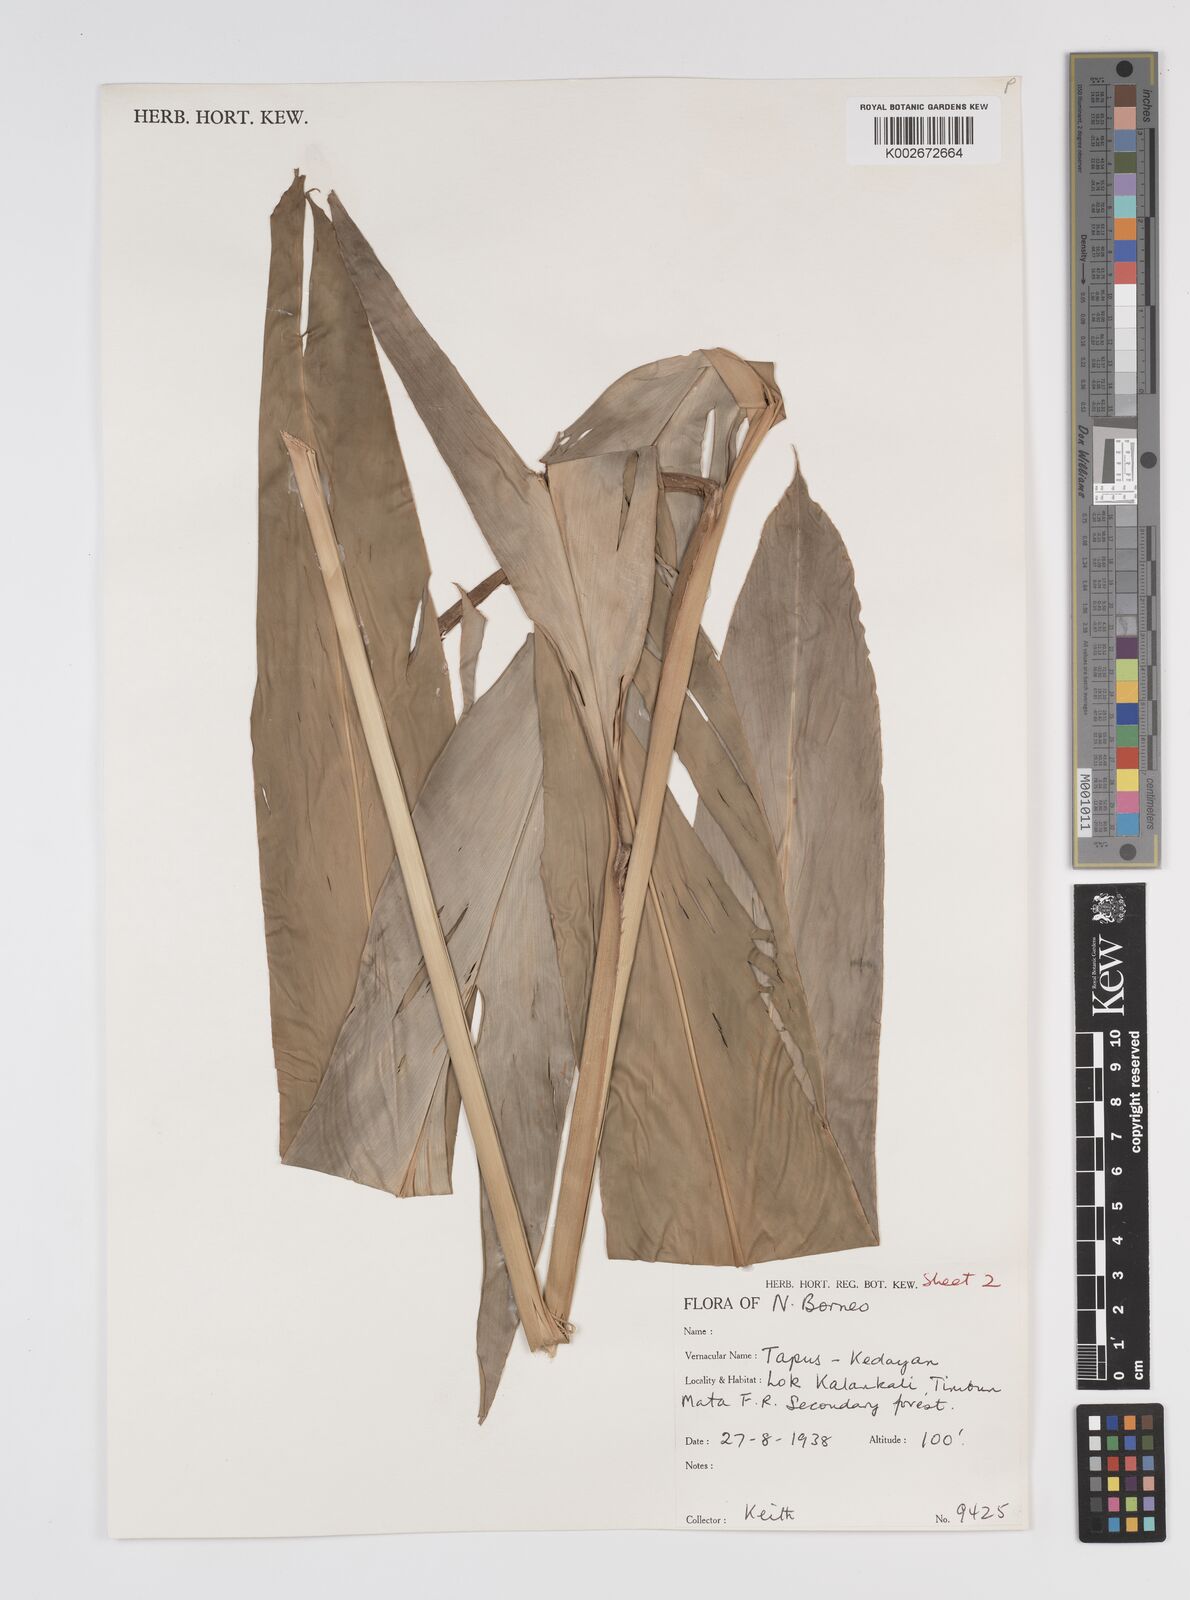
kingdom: Plantae
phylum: Tracheophyta
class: Liliopsida
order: Zingiberales
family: Zingiberaceae
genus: Etlingera
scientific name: Etlingera fimbriobracteata
